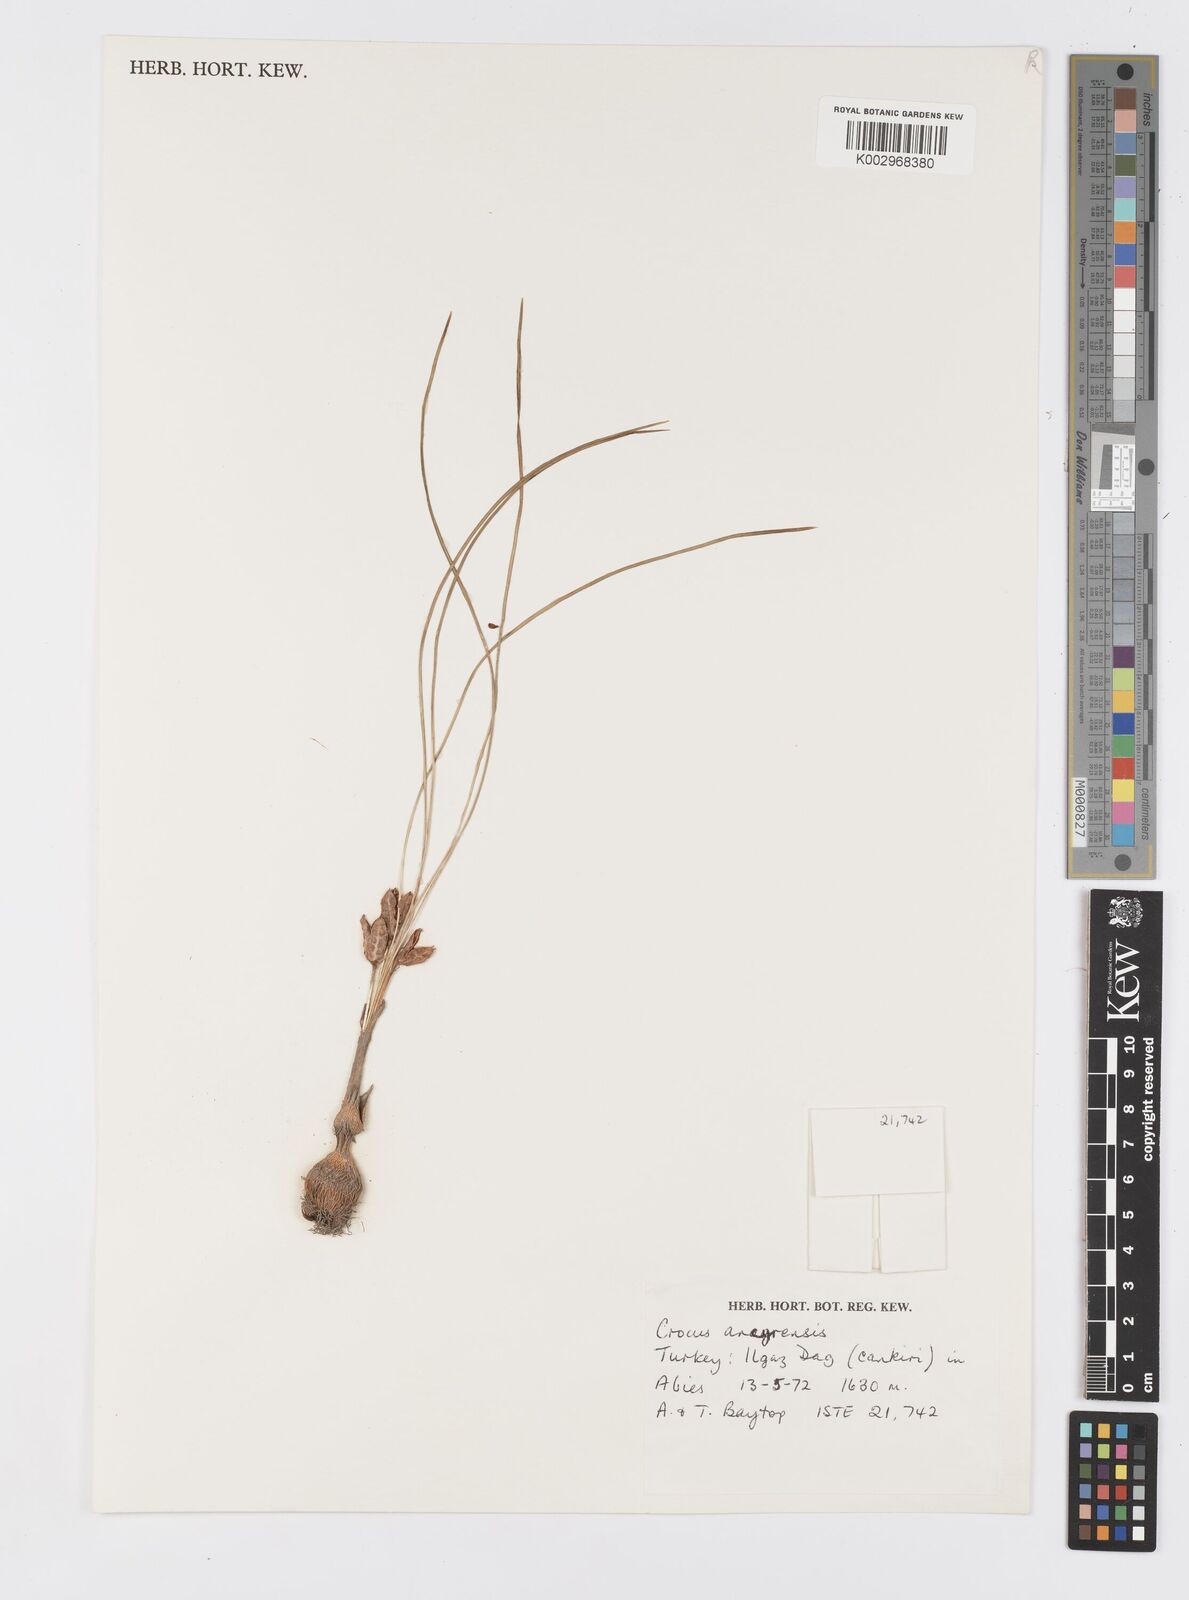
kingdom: Plantae
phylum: Tracheophyta
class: Liliopsida
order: Asparagales
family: Iridaceae
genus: Crocus
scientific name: Crocus ancyrensis
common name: Ankara crocus
